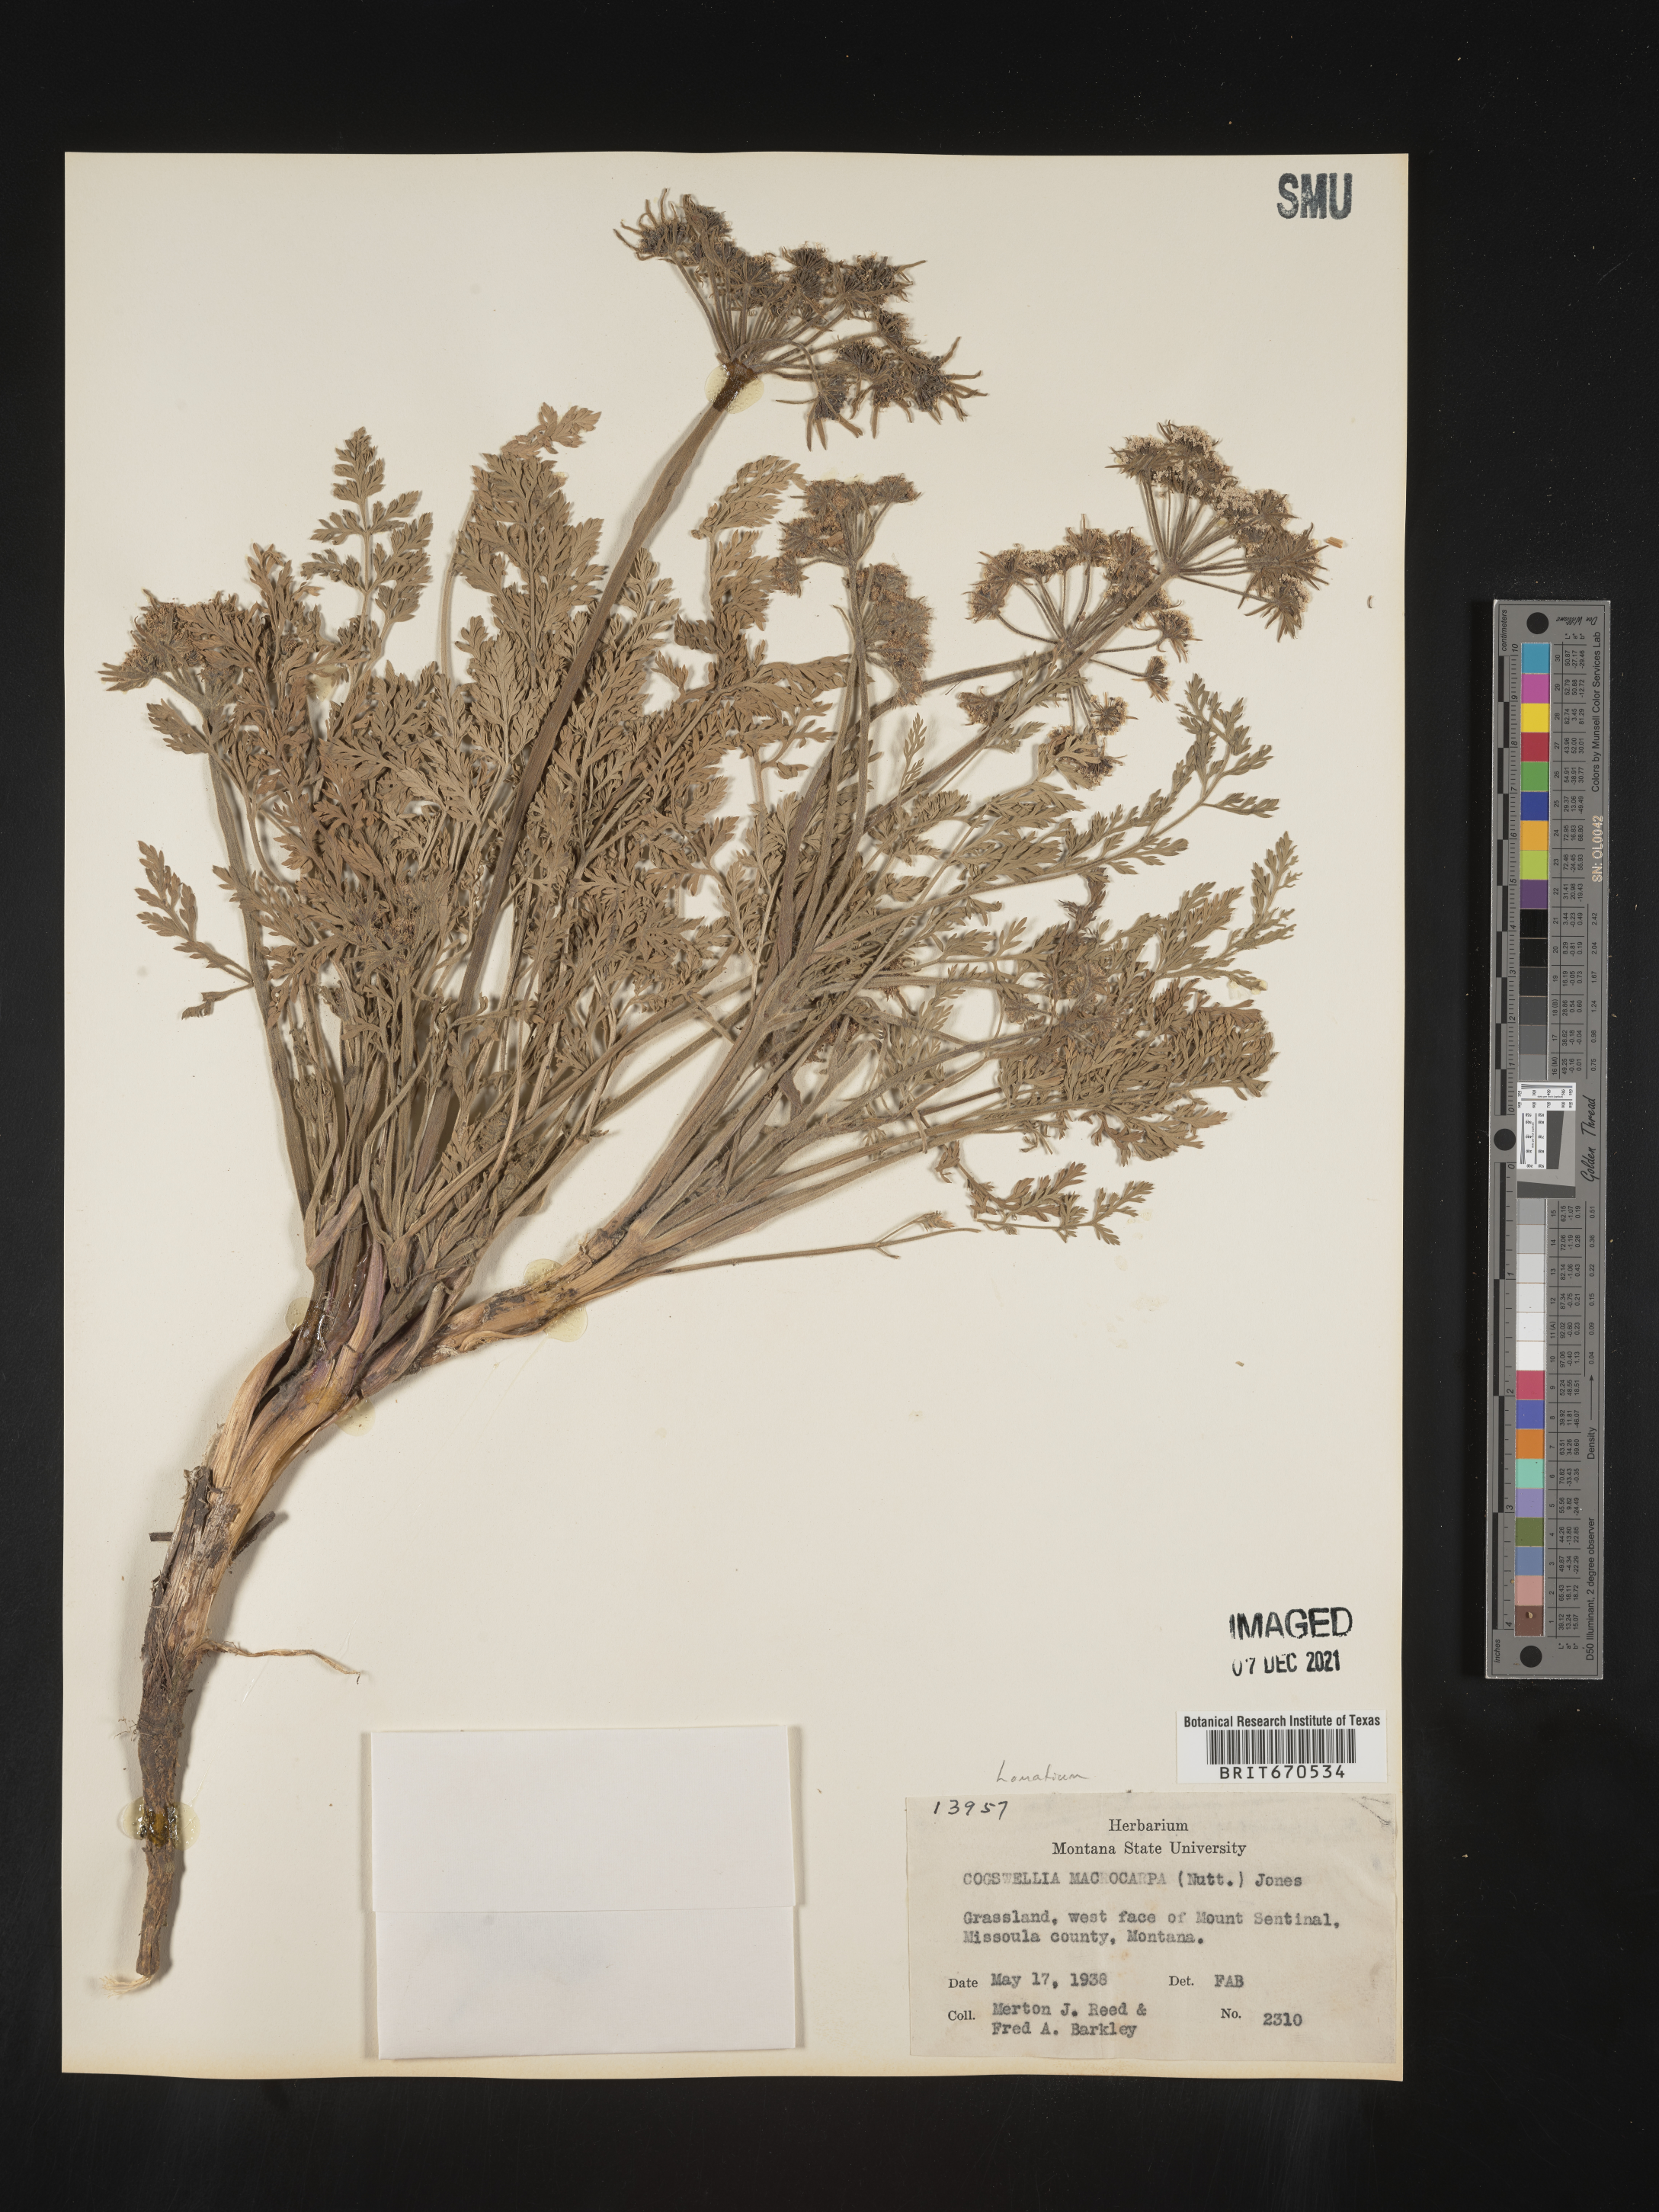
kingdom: Plantae
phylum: Tracheophyta
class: Magnoliopsida
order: Apiales
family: Apiaceae
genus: Lomatium
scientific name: Lomatium macrocarpum
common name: Big-seed biscuitroot
